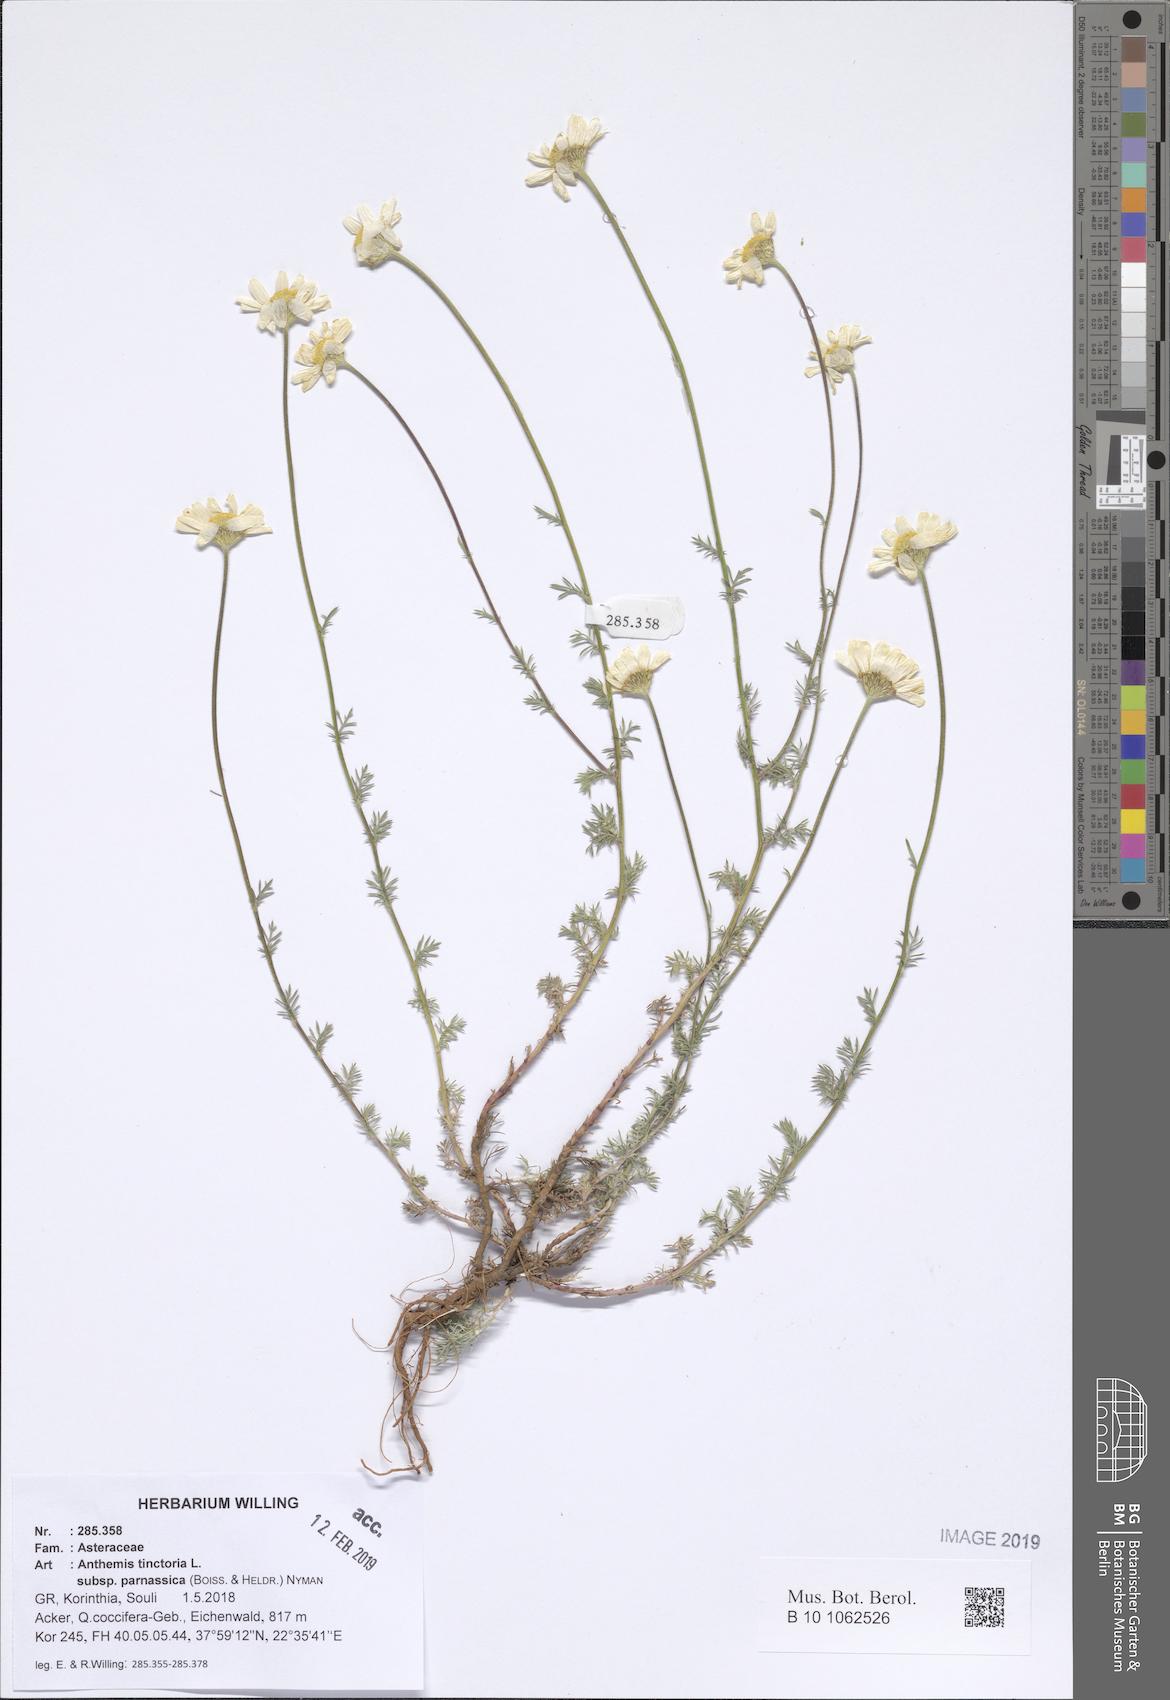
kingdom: Plantae
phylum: Tracheophyta
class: Magnoliopsida
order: Asterales
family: Asteraceae
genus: Cota
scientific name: Cota tinctoria
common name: Golden chamomile
